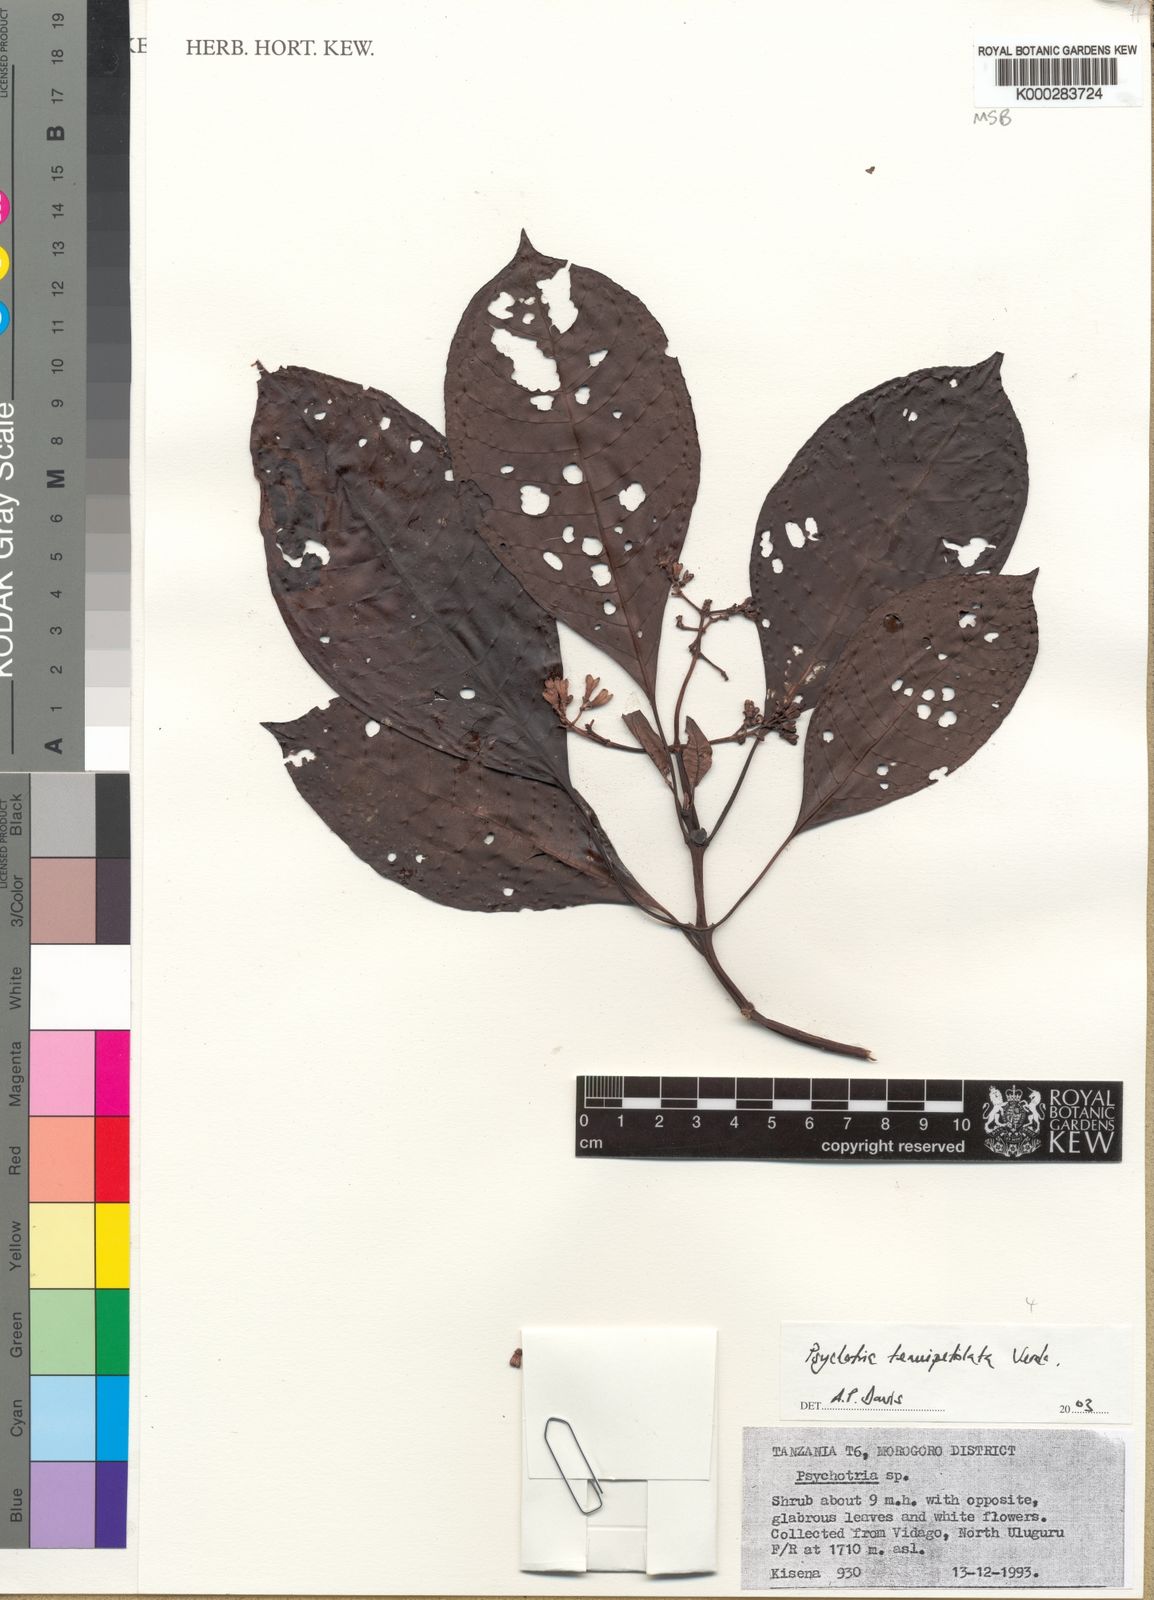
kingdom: Plantae
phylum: Tracheophyta
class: Magnoliopsida
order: Gentianales
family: Rubiaceae
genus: Psychotria
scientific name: Psychotria tenuipetiolata
